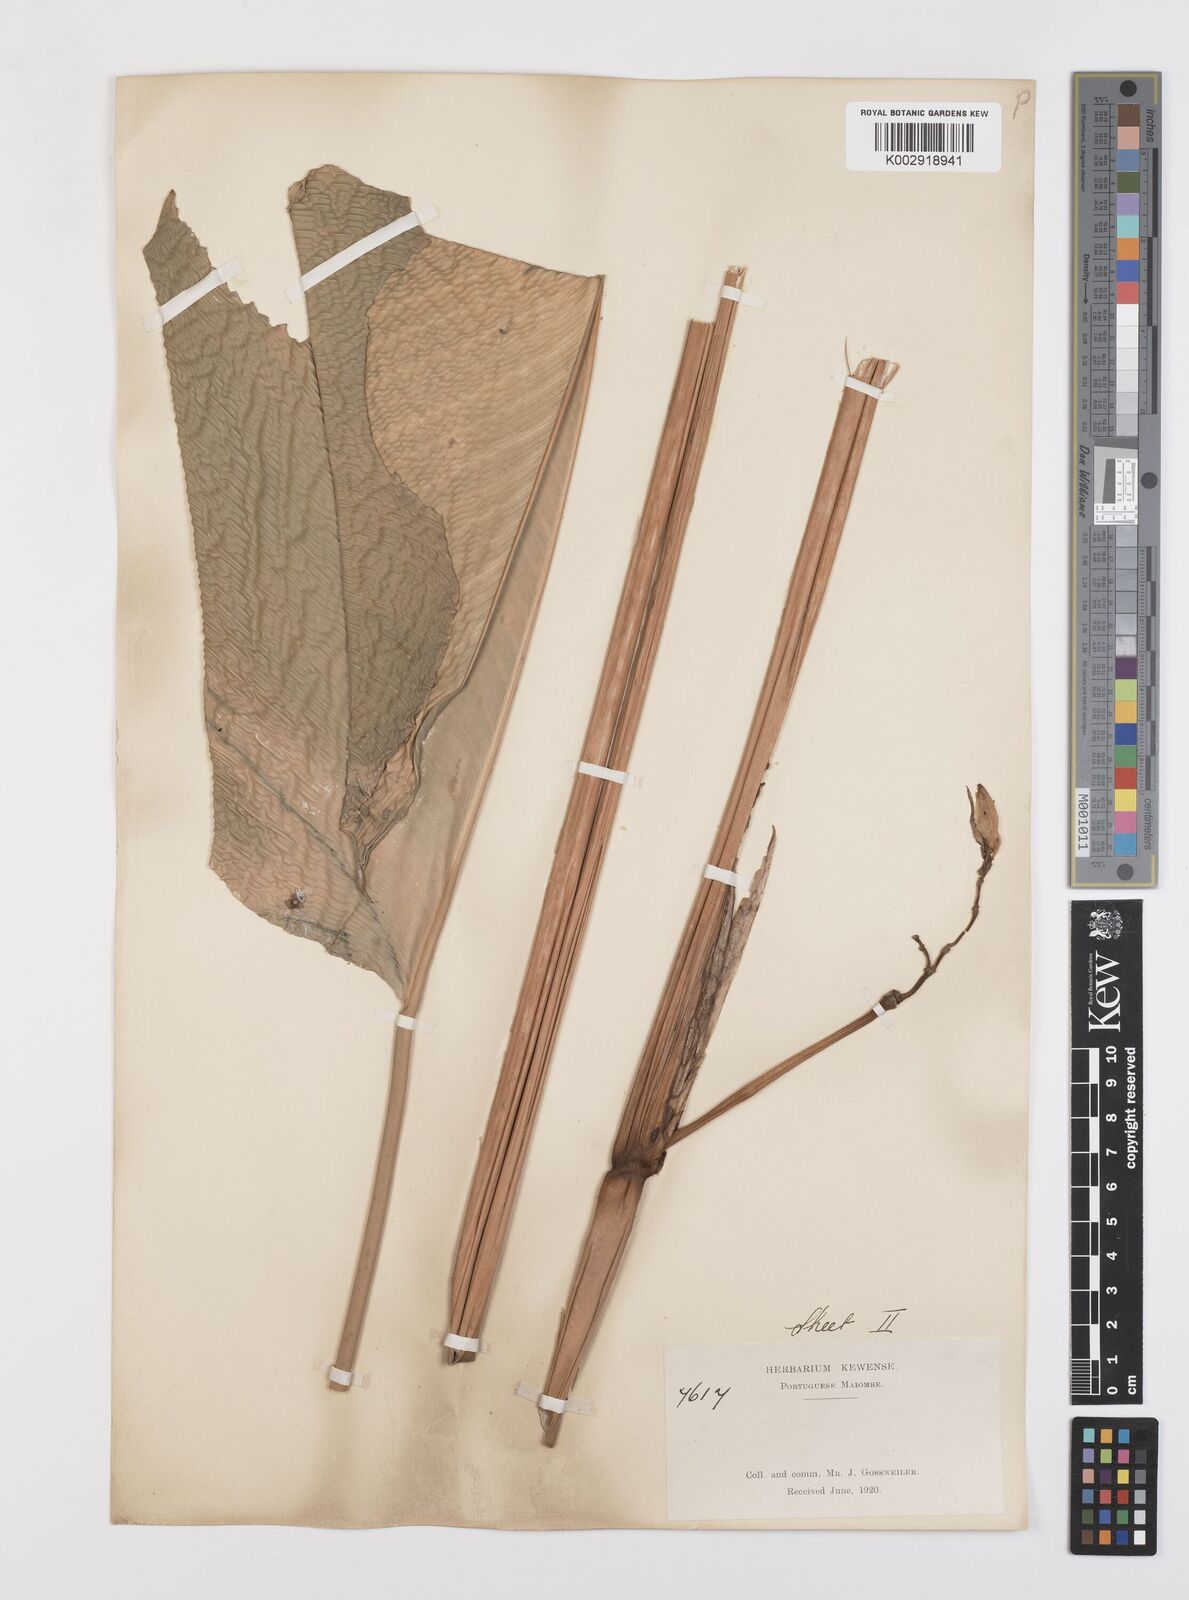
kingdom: Plantae
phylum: Tracheophyta
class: Liliopsida
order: Zingiberales
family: Marantaceae
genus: Megaphrynium
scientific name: Megaphrynium trichogynum
